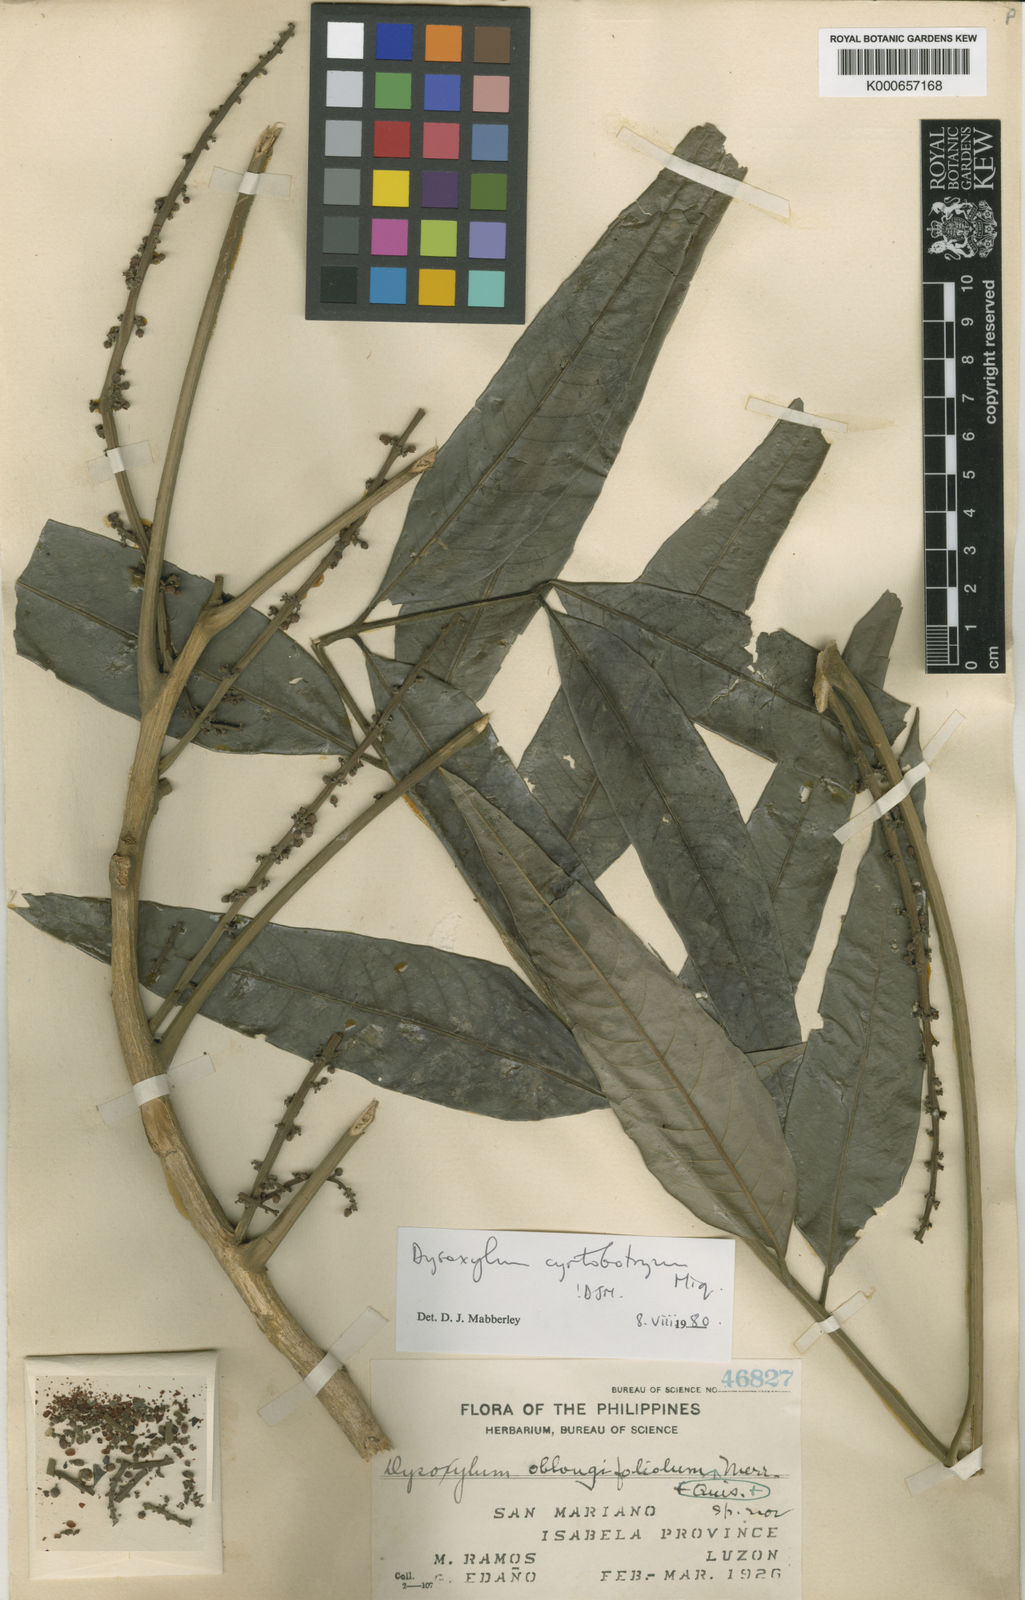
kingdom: Plantae
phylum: Tracheophyta
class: Magnoliopsida
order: Sapindales
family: Meliaceae
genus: Dysoxylum
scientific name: Dysoxylum cyrtobotryum
